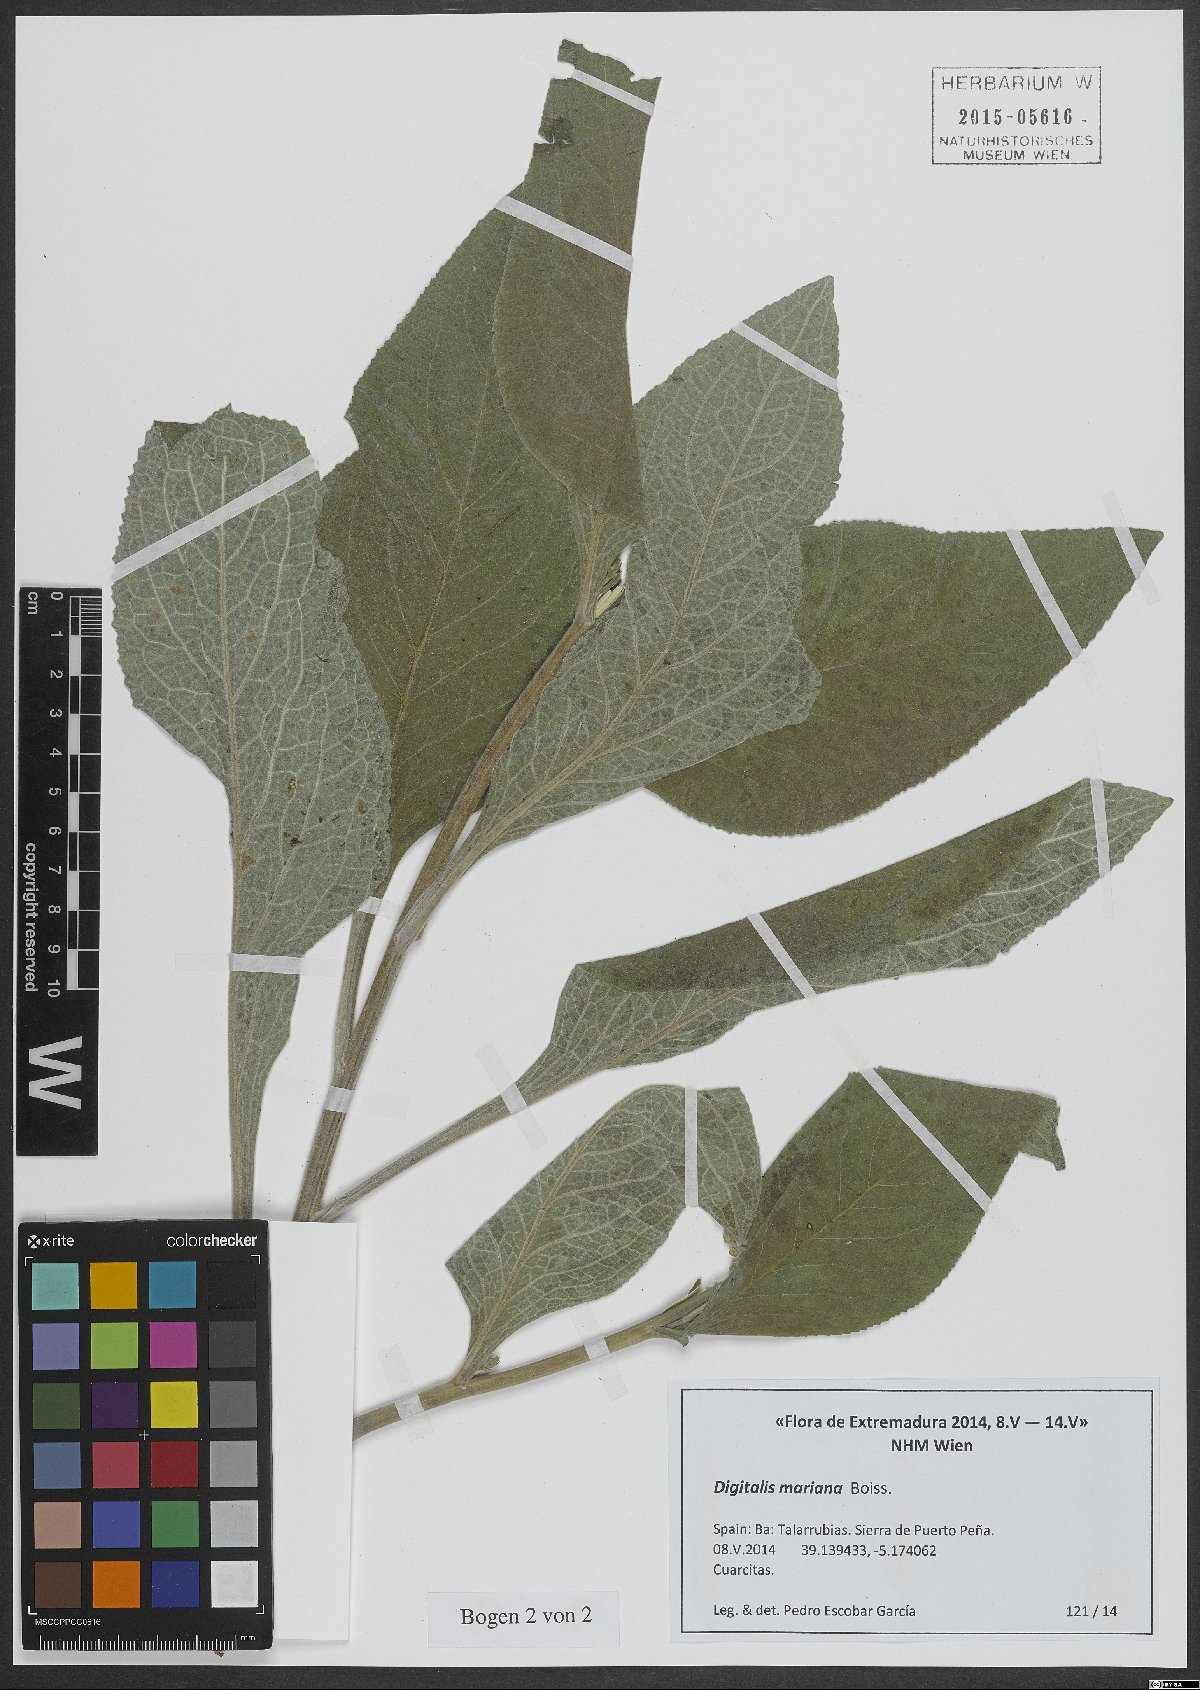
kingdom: Plantae
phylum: Tracheophyta
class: Magnoliopsida
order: Lamiales
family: Plantaginaceae
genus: Digitalis
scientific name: Digitalis mariana
